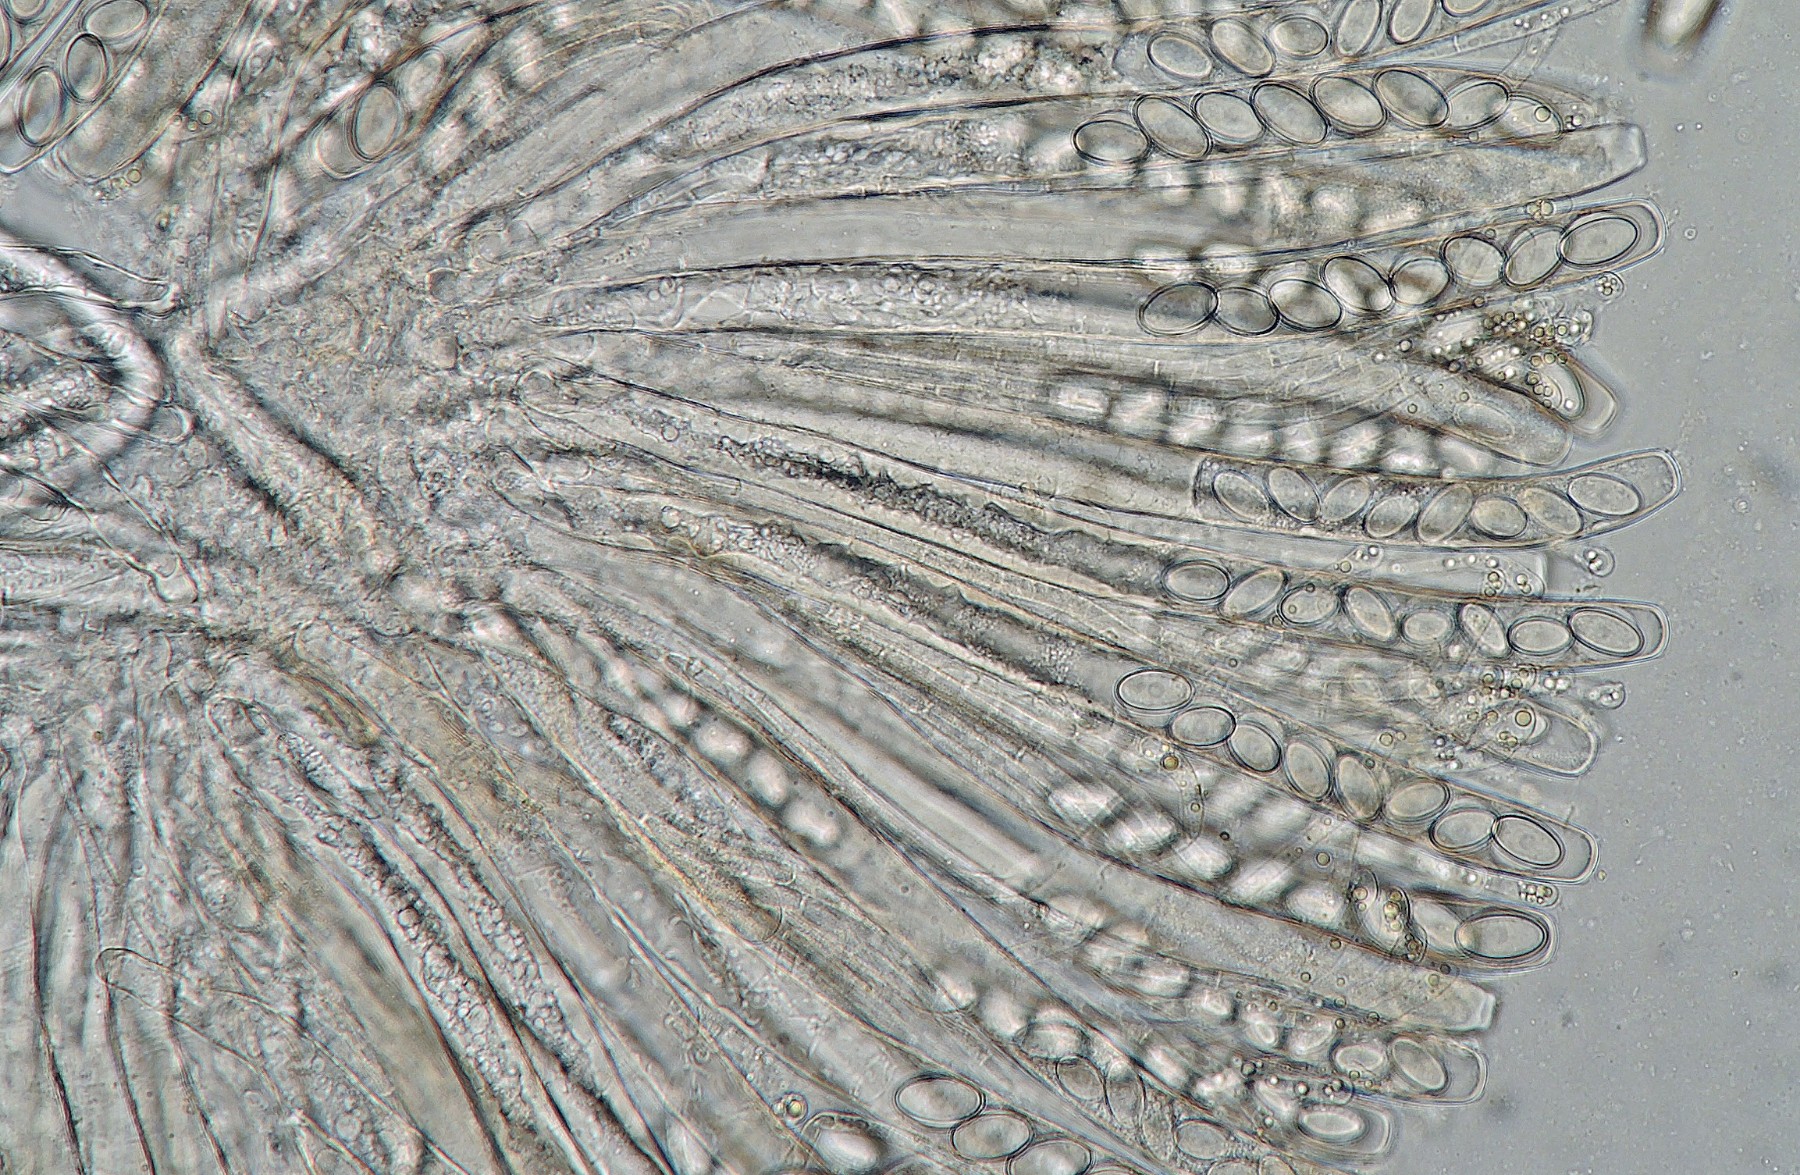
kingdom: Fungi
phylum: Ascomycota
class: Pezizomycetes
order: Pezizales
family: Pezizaceae
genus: Peziza
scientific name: Peziza fimeti
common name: møg-bægersvamp
